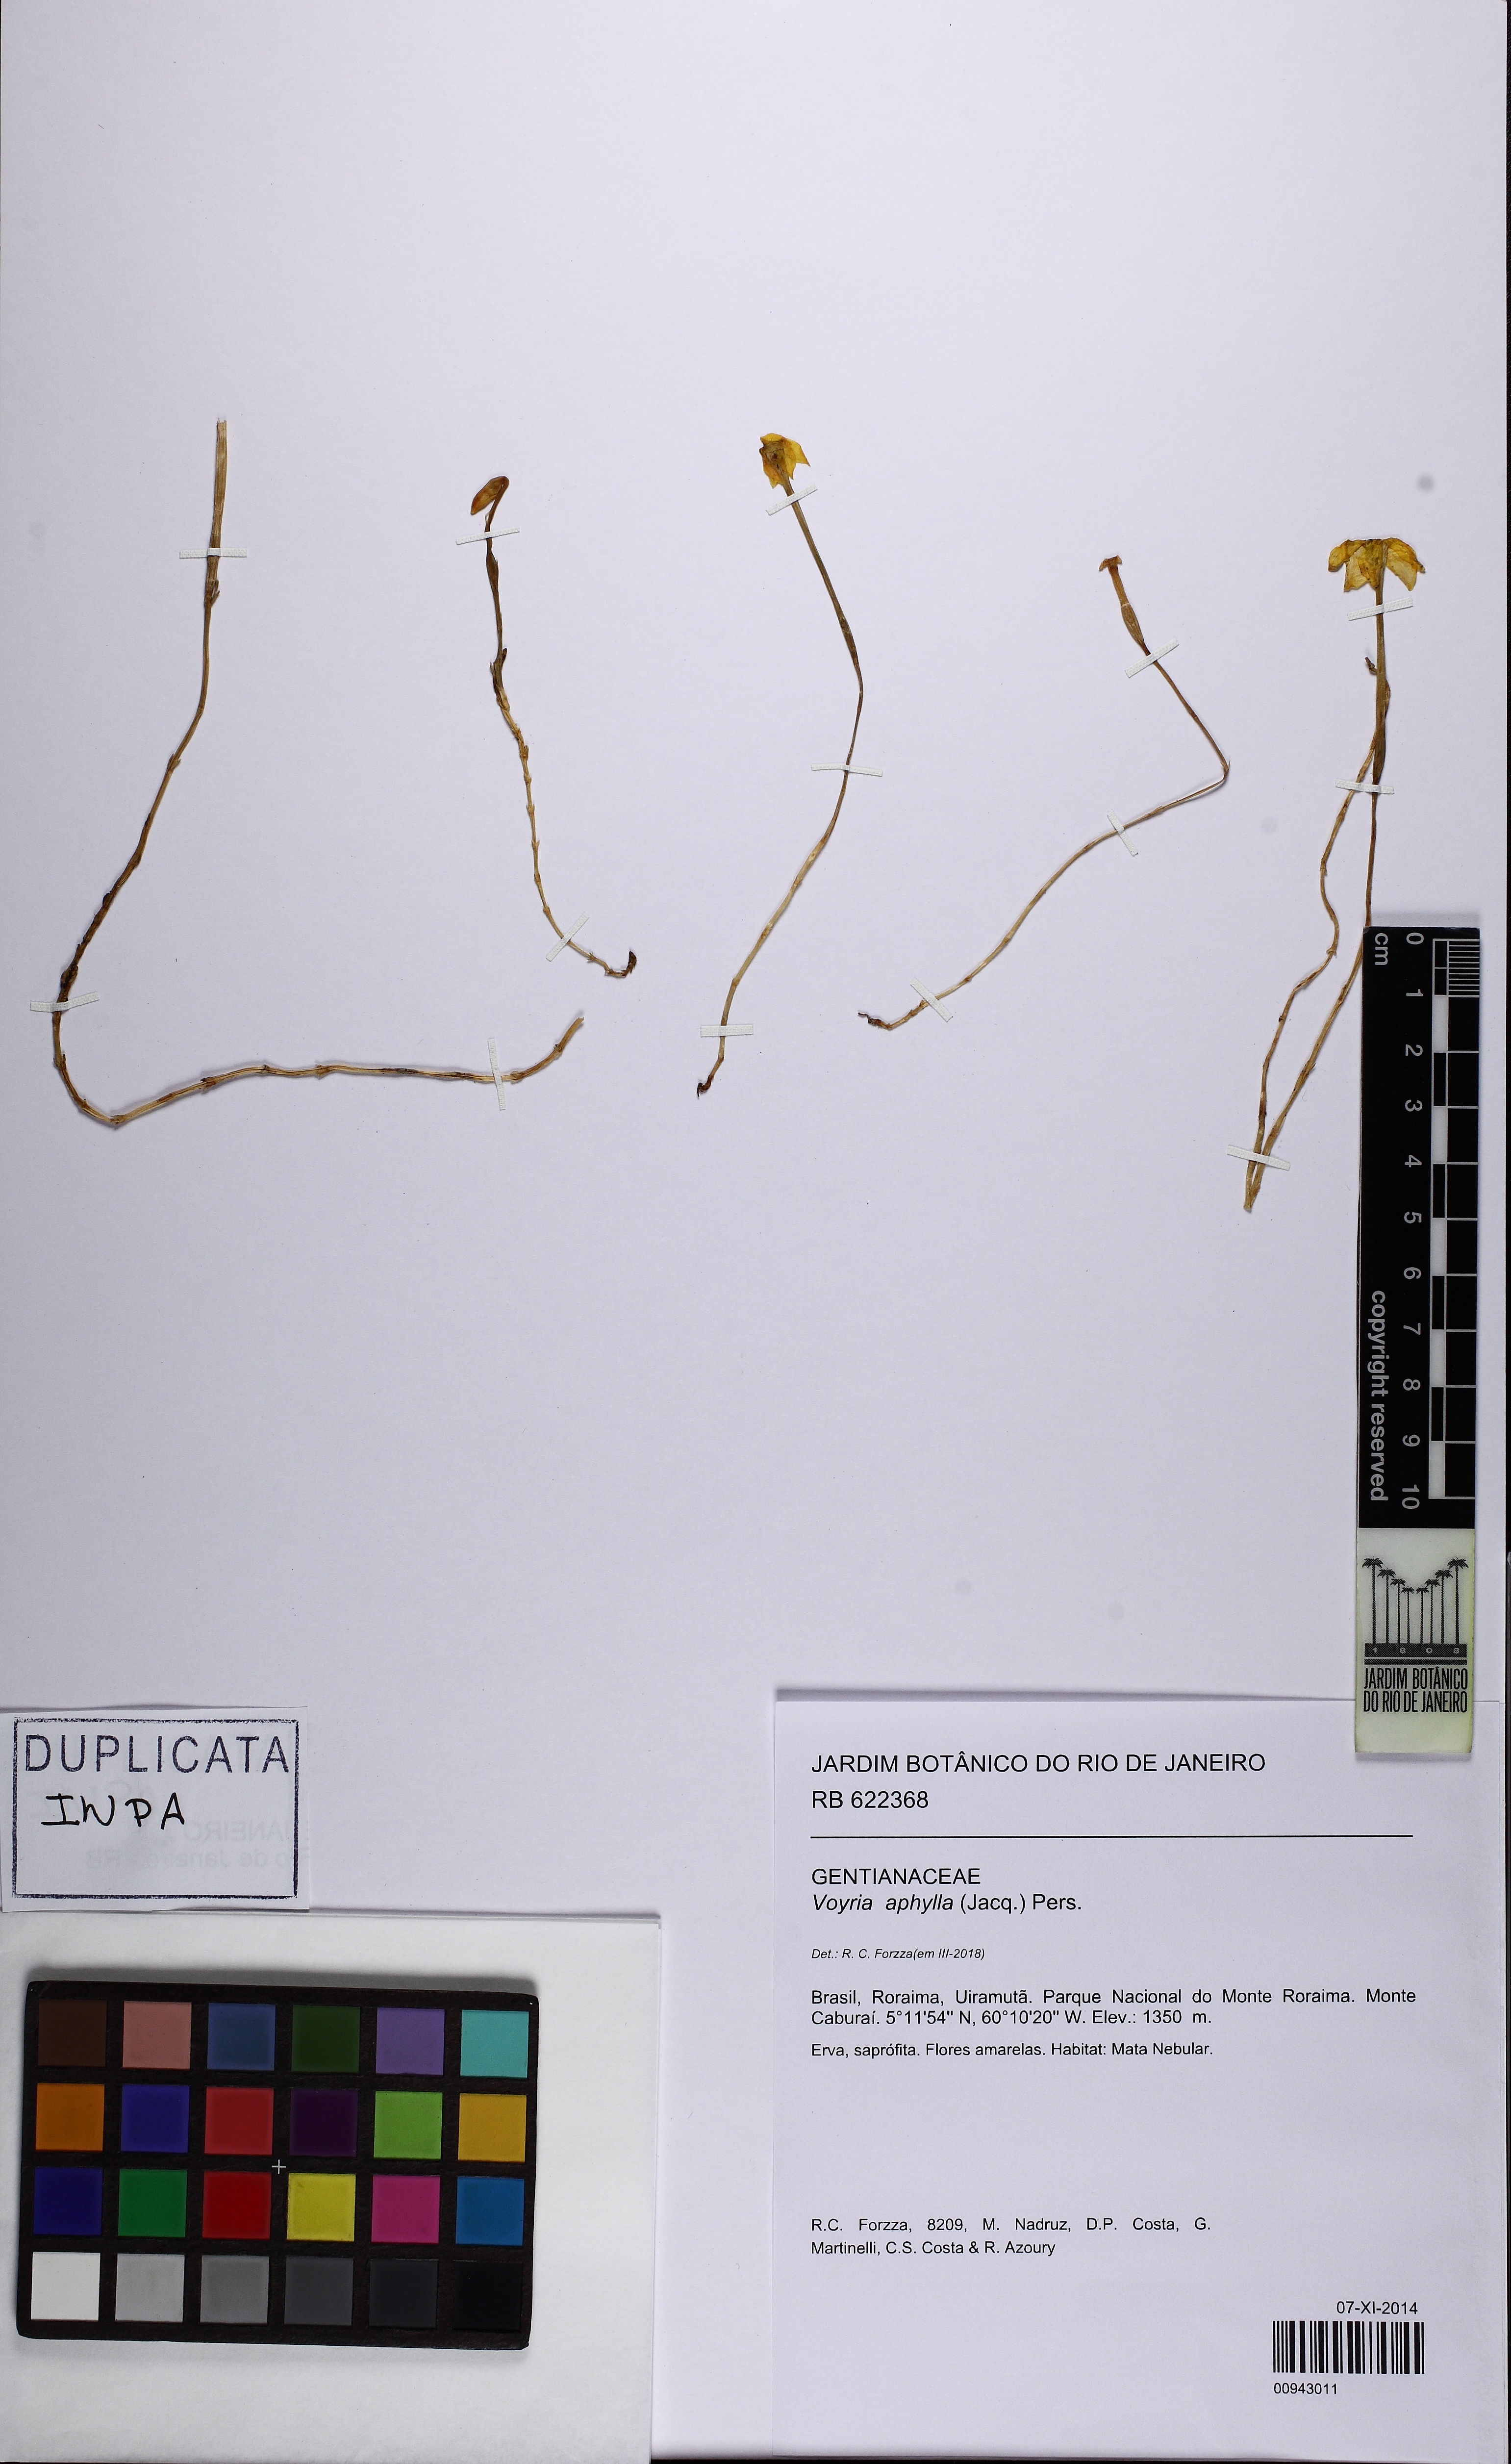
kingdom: Plantae
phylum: Tracheophyta
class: Magnoliopsida
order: Gentianales
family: Gentianaceae
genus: Voyria
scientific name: Voyria aphylla
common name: Leafless ghost plant
